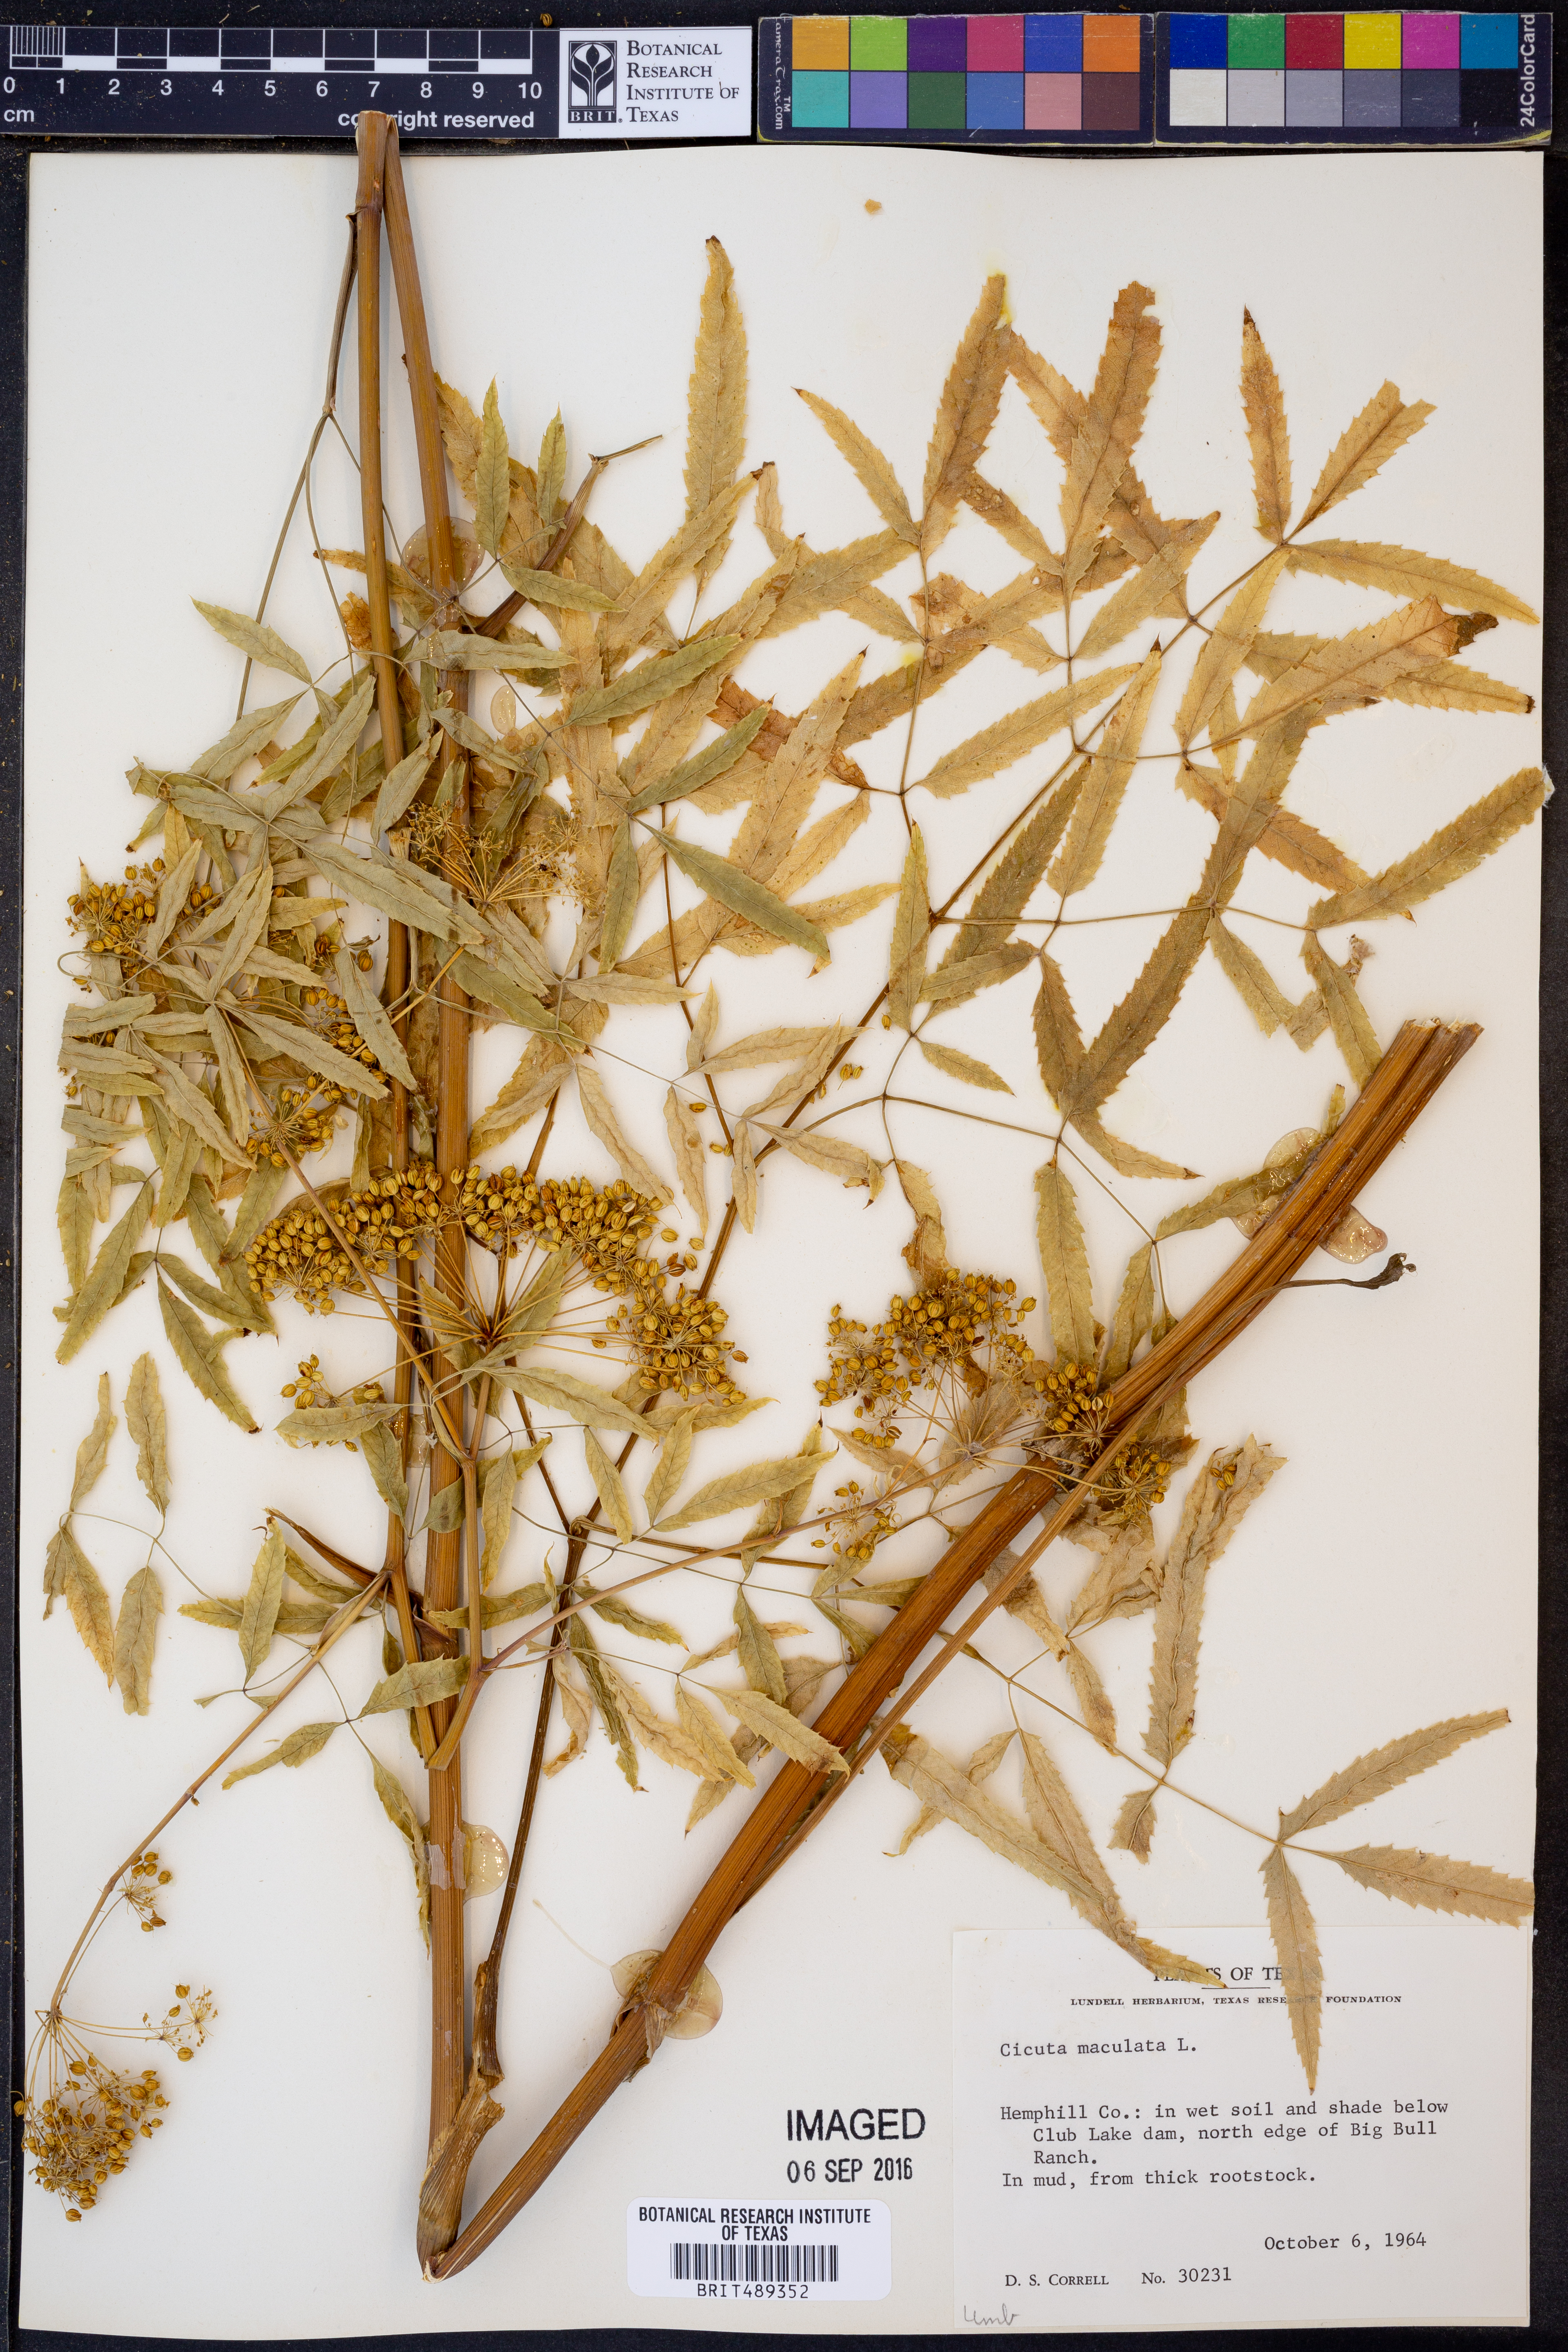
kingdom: Plantae
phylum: Tracheophyta
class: Magnoliopsida
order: Apiales
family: Apiaceae
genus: Cicuta
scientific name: Cicuta maculata
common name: Spotted cowbane
